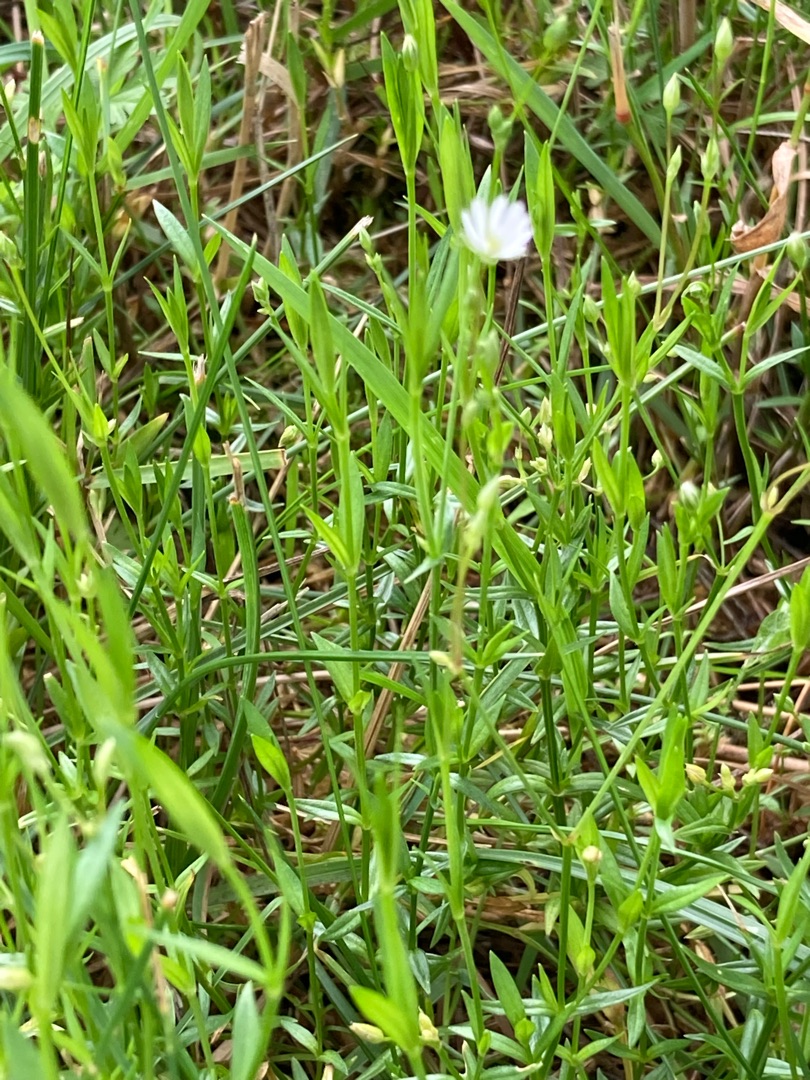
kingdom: Plantae
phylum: Tracheophyta
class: Magnoliopsida
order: Caryophyllales
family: Caryophyllaceae
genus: Stellaria
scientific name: Stellaria graminea
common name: Græsbladet fladstjerne
